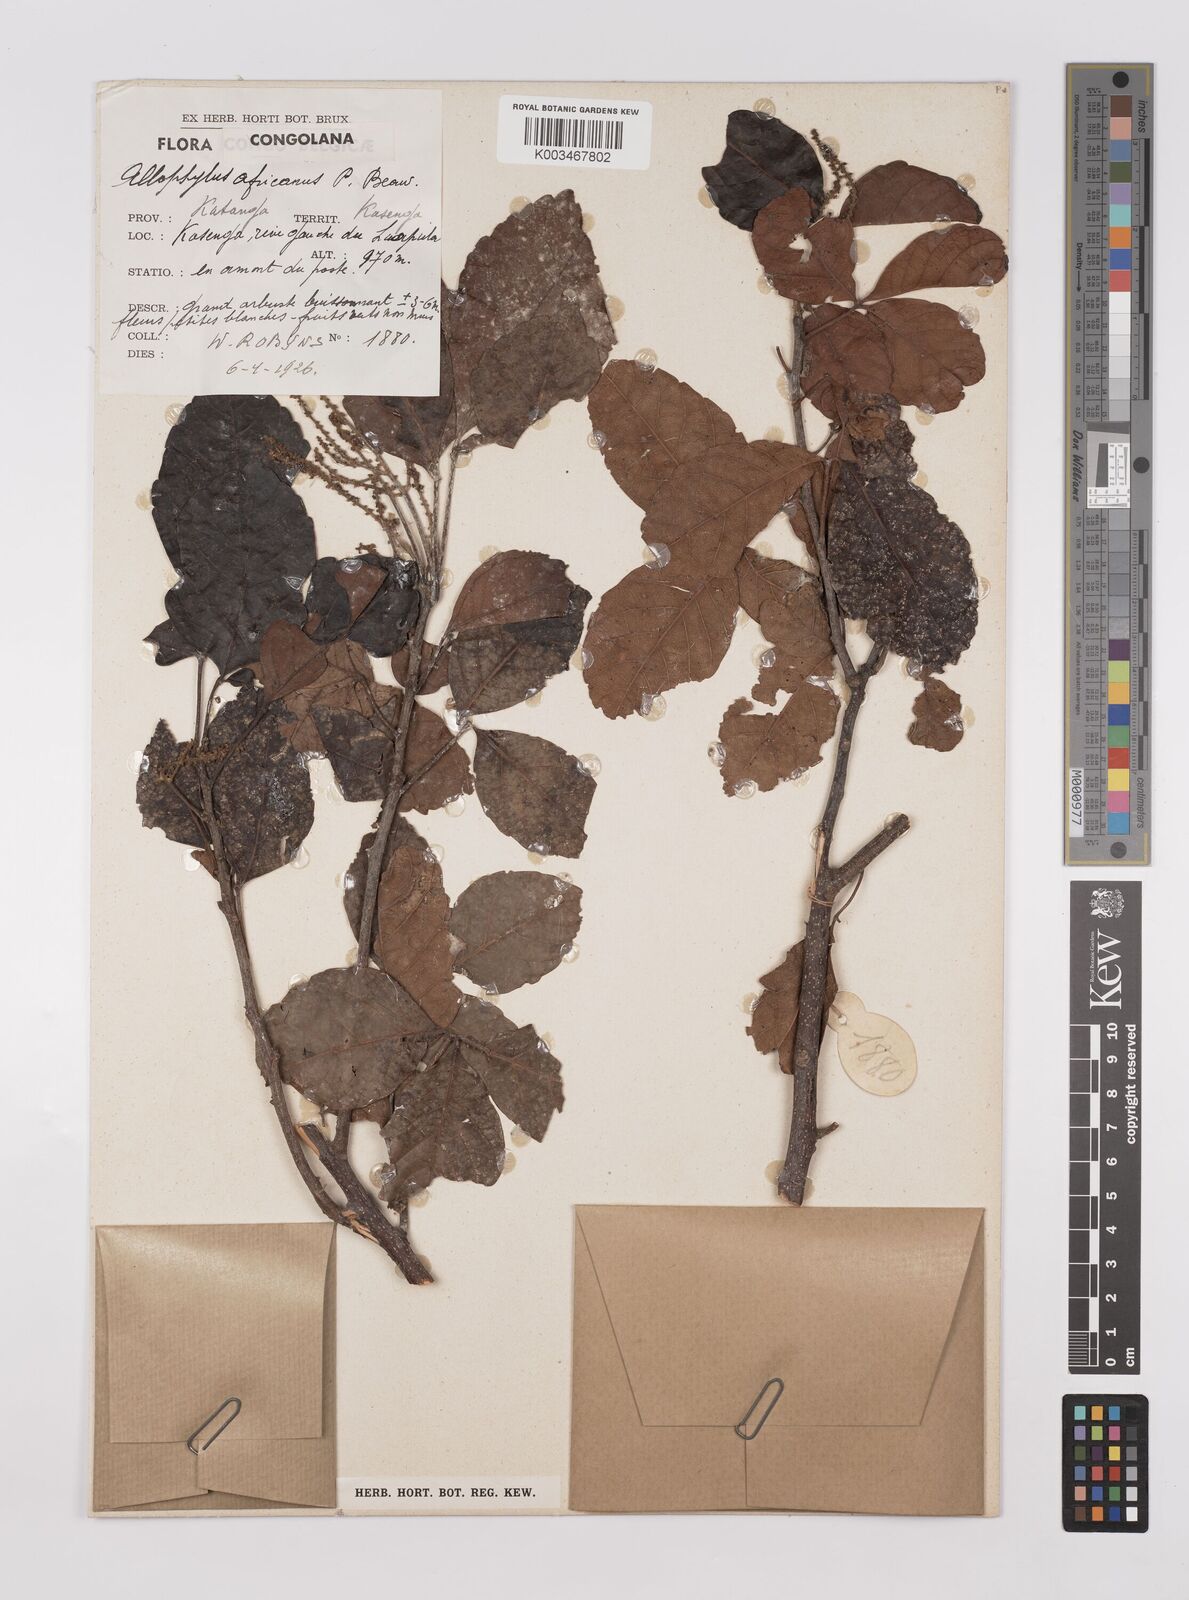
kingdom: Plantae
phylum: Tracheophyta
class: Magnoliopsida
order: Sapindales
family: Sapindaceae
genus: Allophylus
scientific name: Allophylus africanus
